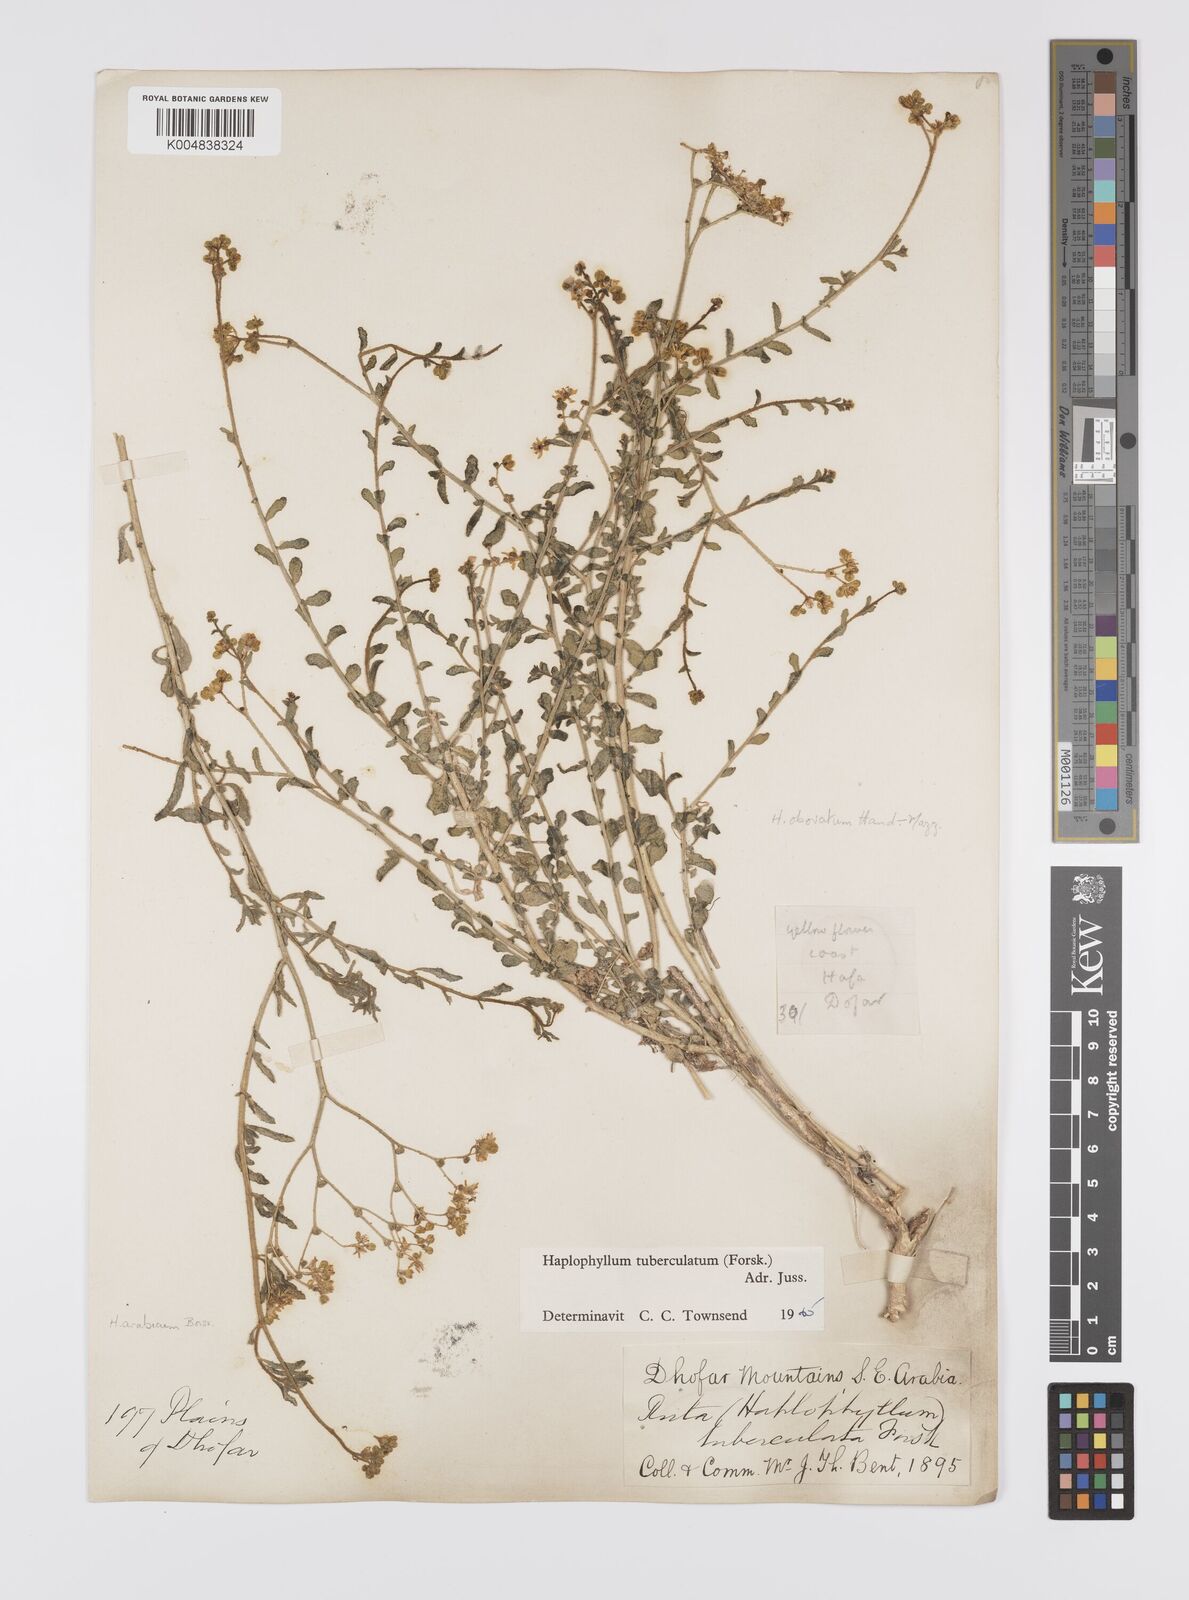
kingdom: Plantae
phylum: Tracheophyta
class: Magnoliopsida
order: Sapindales
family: Rutaceae
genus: Haplophyllum
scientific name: Haplophyllum tuberculatum
